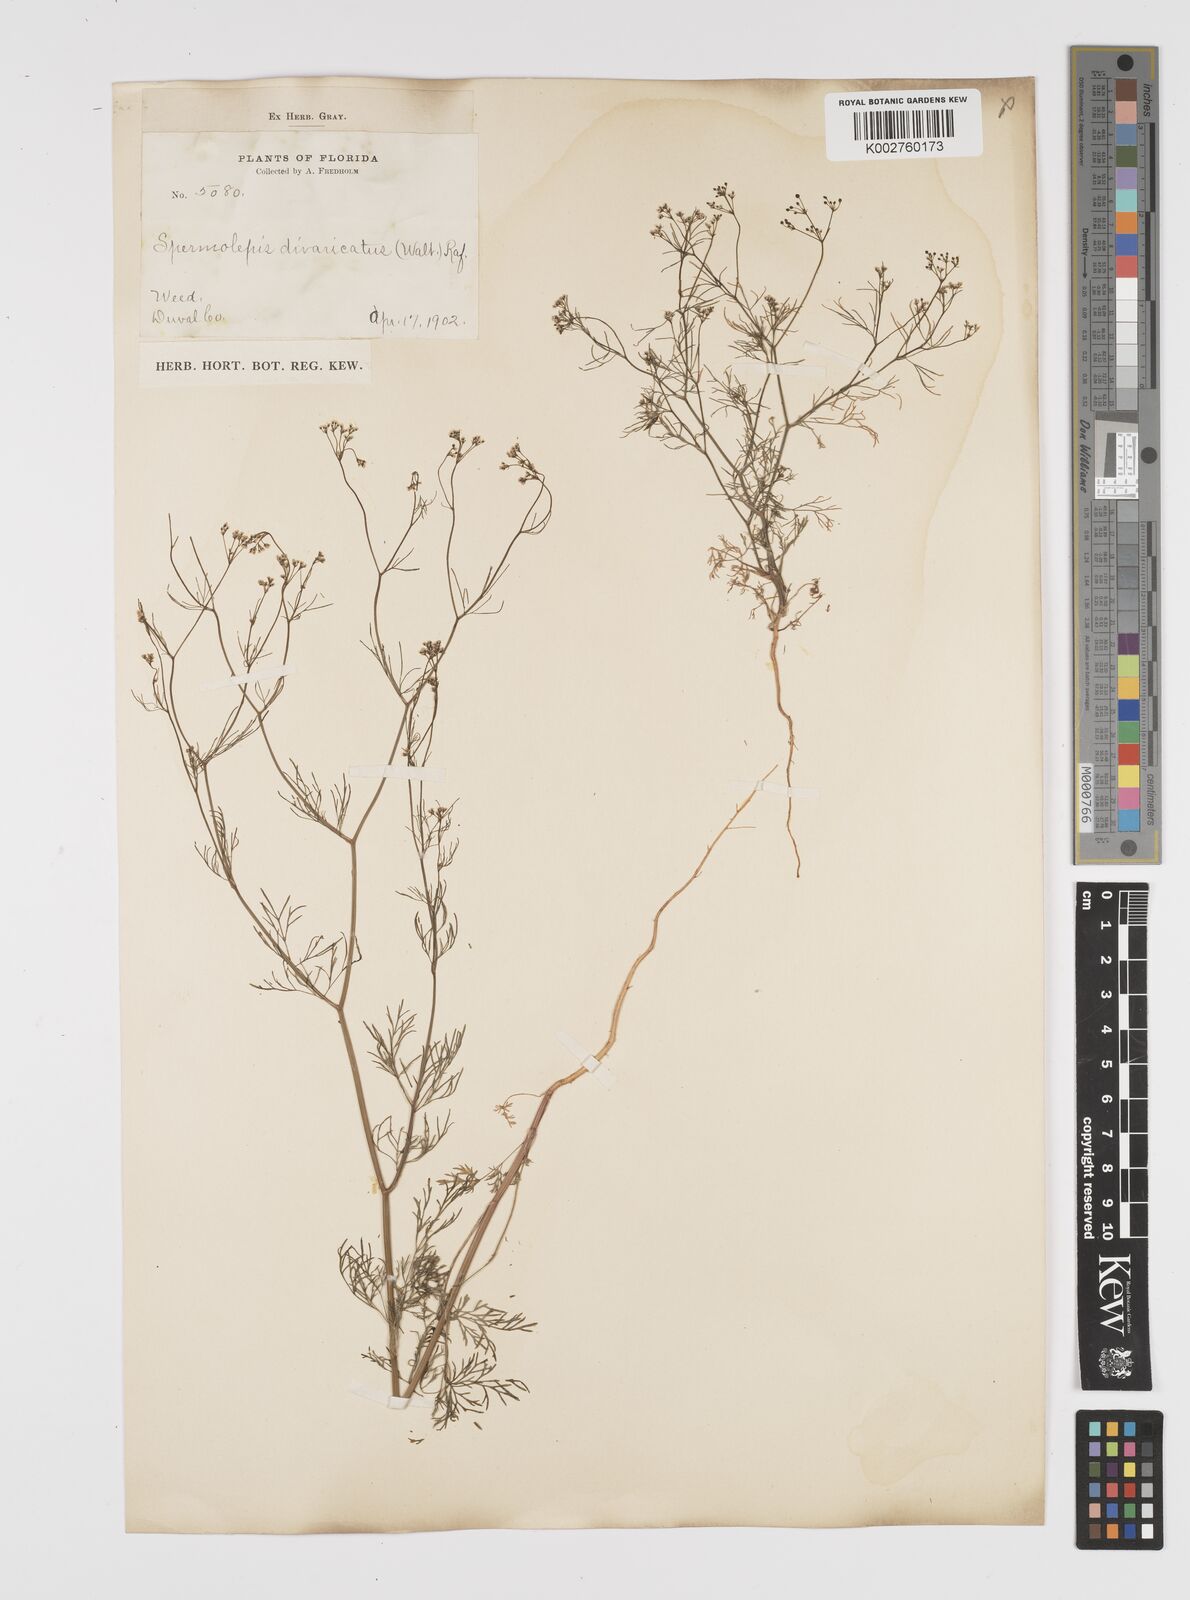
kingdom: Plantae
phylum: Tracheophyta
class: Magnoliopsida
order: Apiales
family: Apiaceae
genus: Spermolepis
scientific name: Spermolepis divaricata
